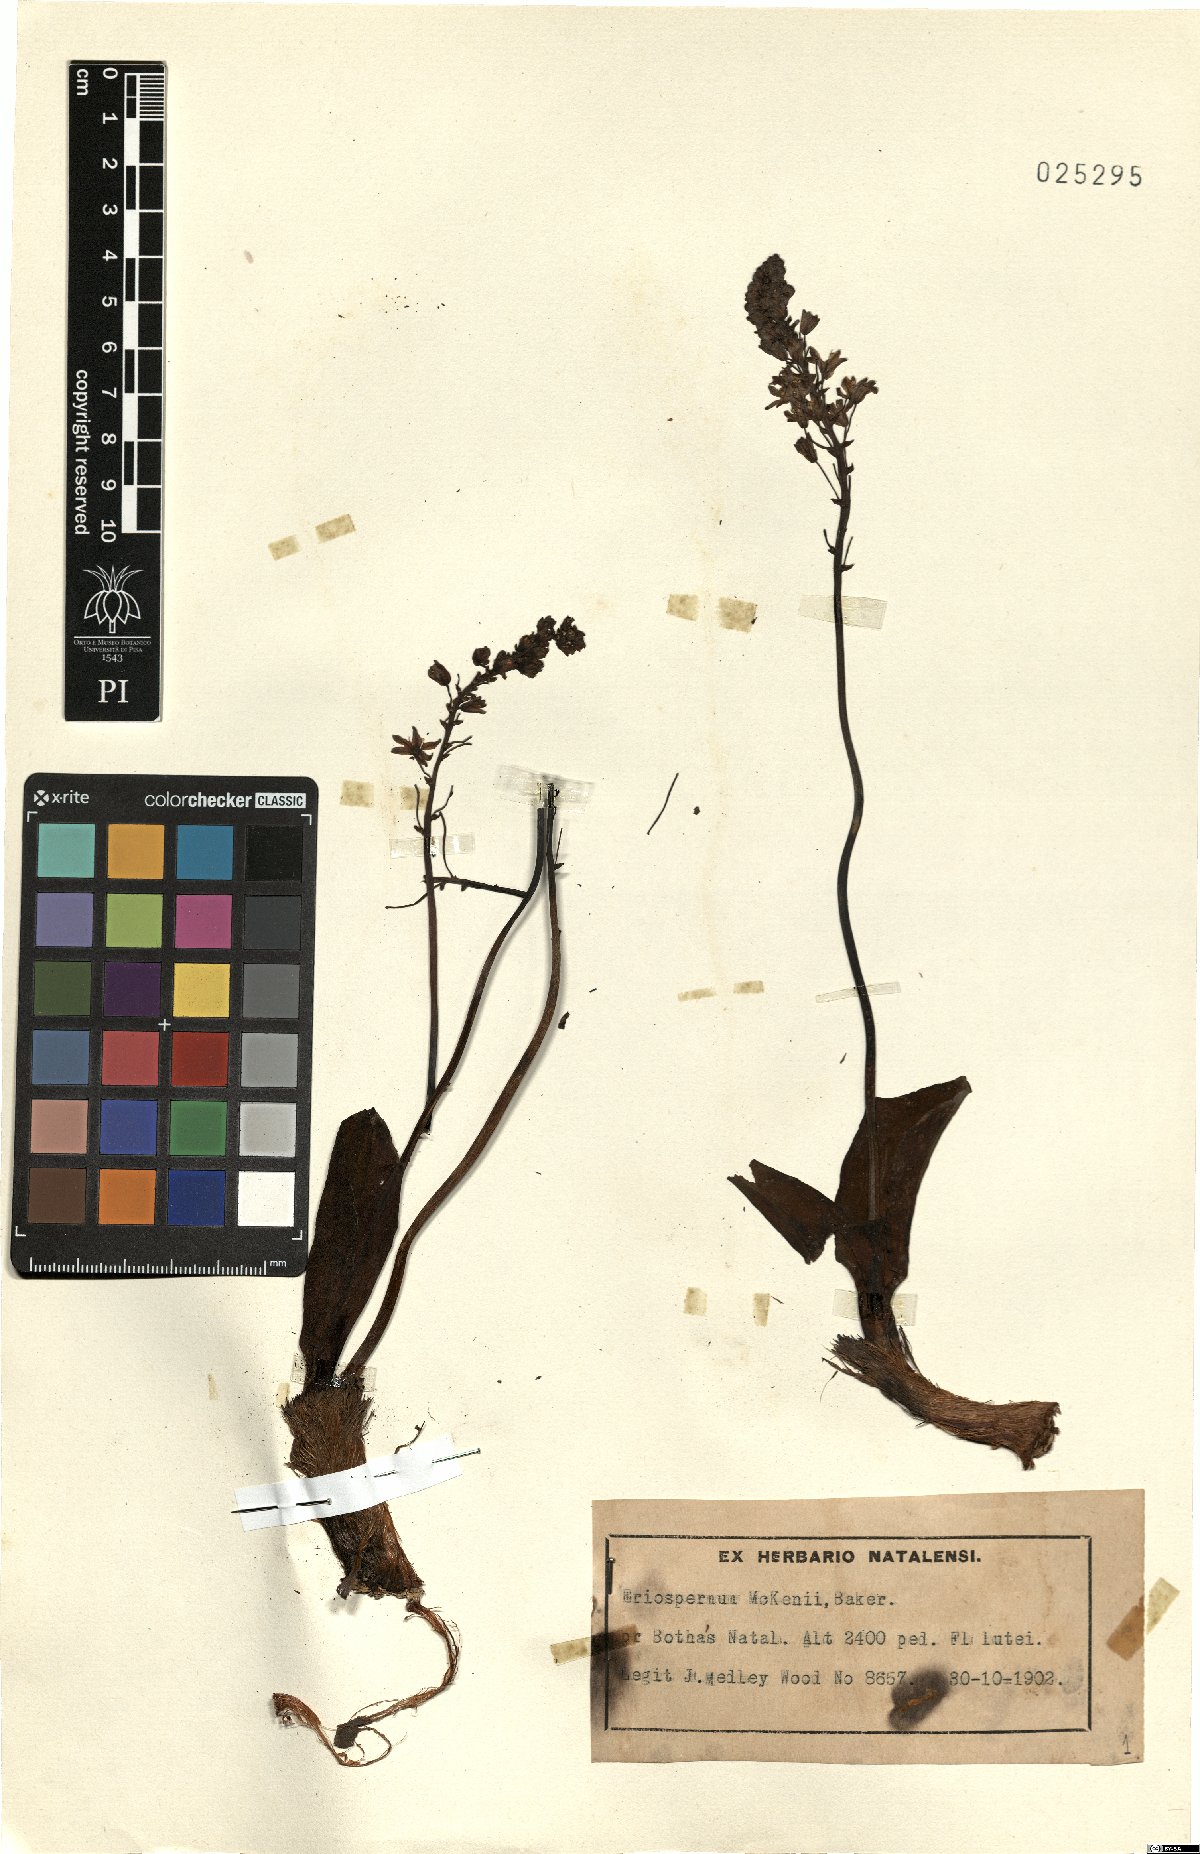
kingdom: Plantae
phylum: Tracheophyta
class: Liliopsida
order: Asparagales
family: Asparagaceae
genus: Eriospermum
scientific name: Eriospermum mackenii
